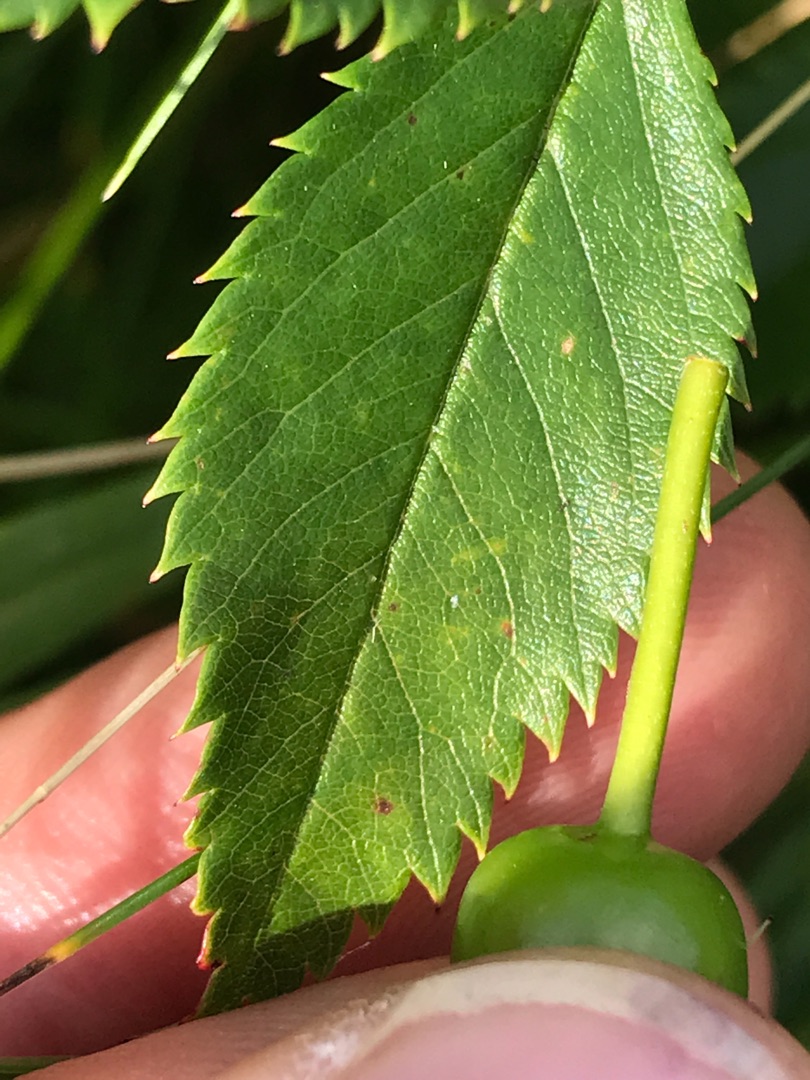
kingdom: Plantae
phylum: Tracheophyta
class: Magnoliopsida
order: Rosales
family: Rosaceae
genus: Rosa
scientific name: Rosa carolina
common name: Glansbladet rose
